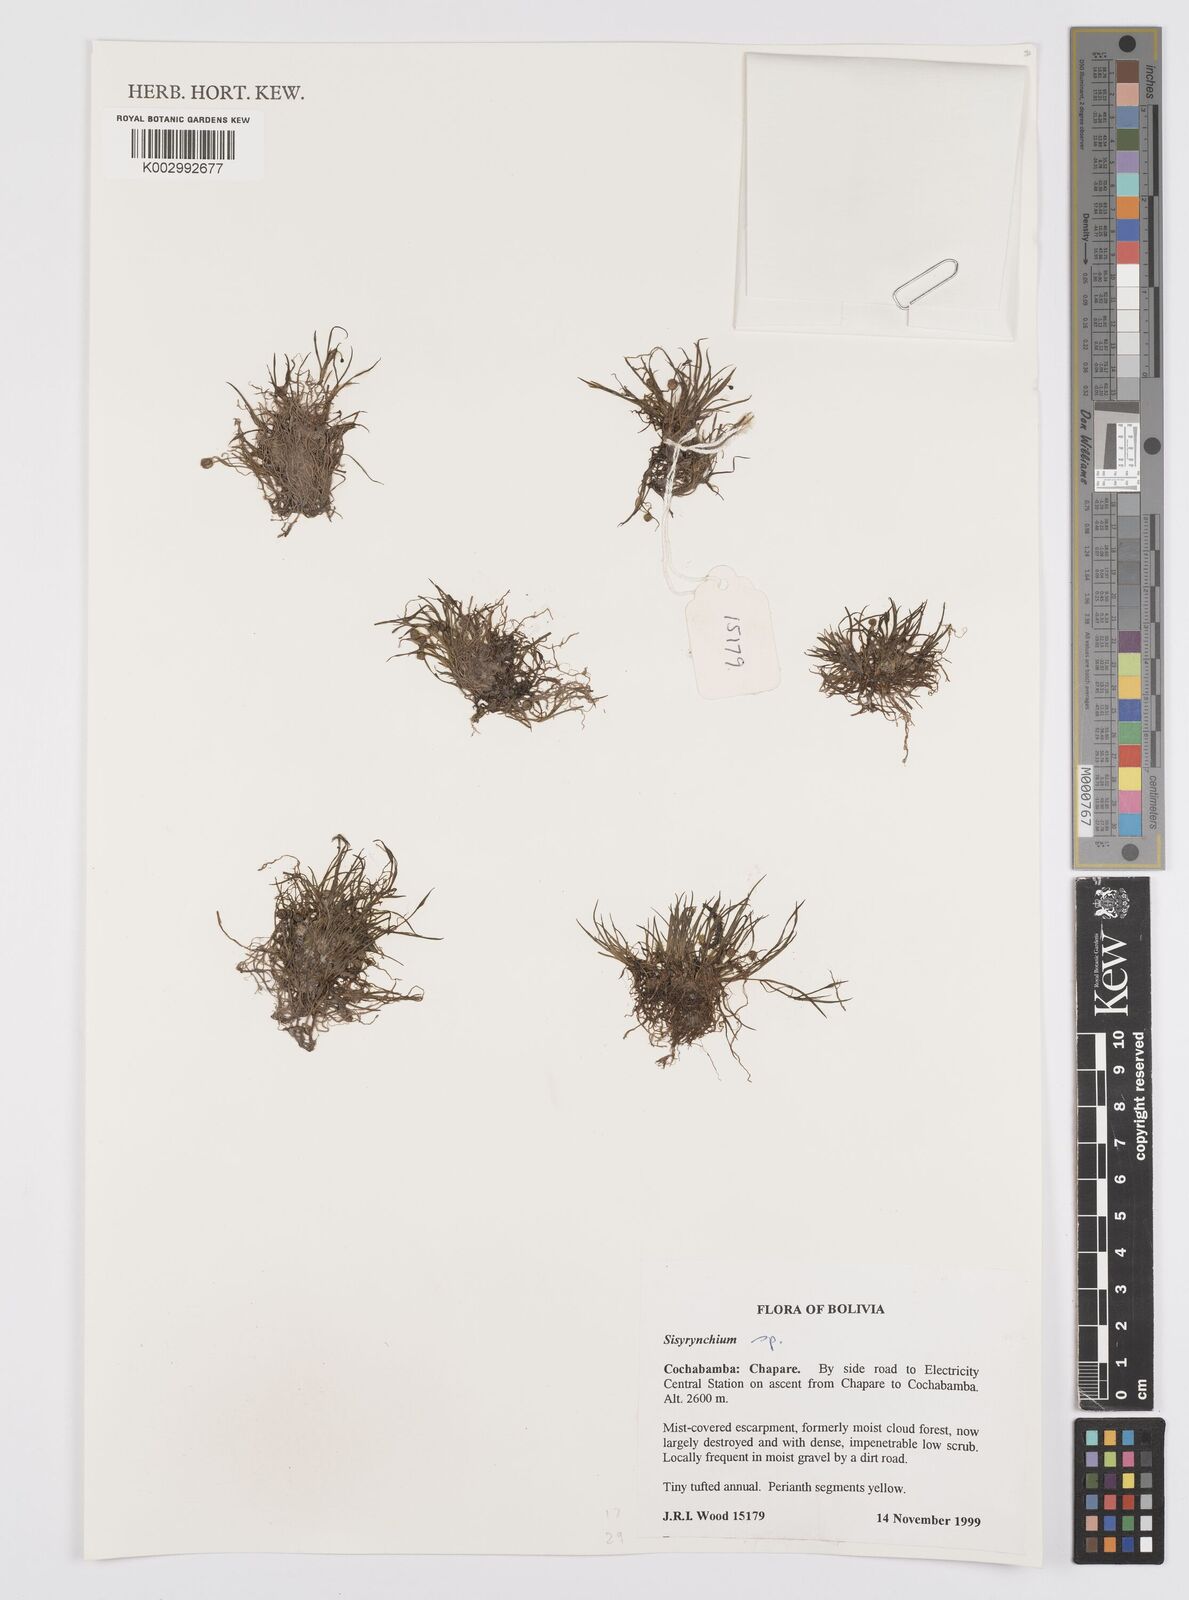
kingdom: Plantae
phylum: Tracheophyta
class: Liliopsida
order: Asparagales
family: Iridaceae
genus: Sisyrinchium
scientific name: Sisyrinchium
